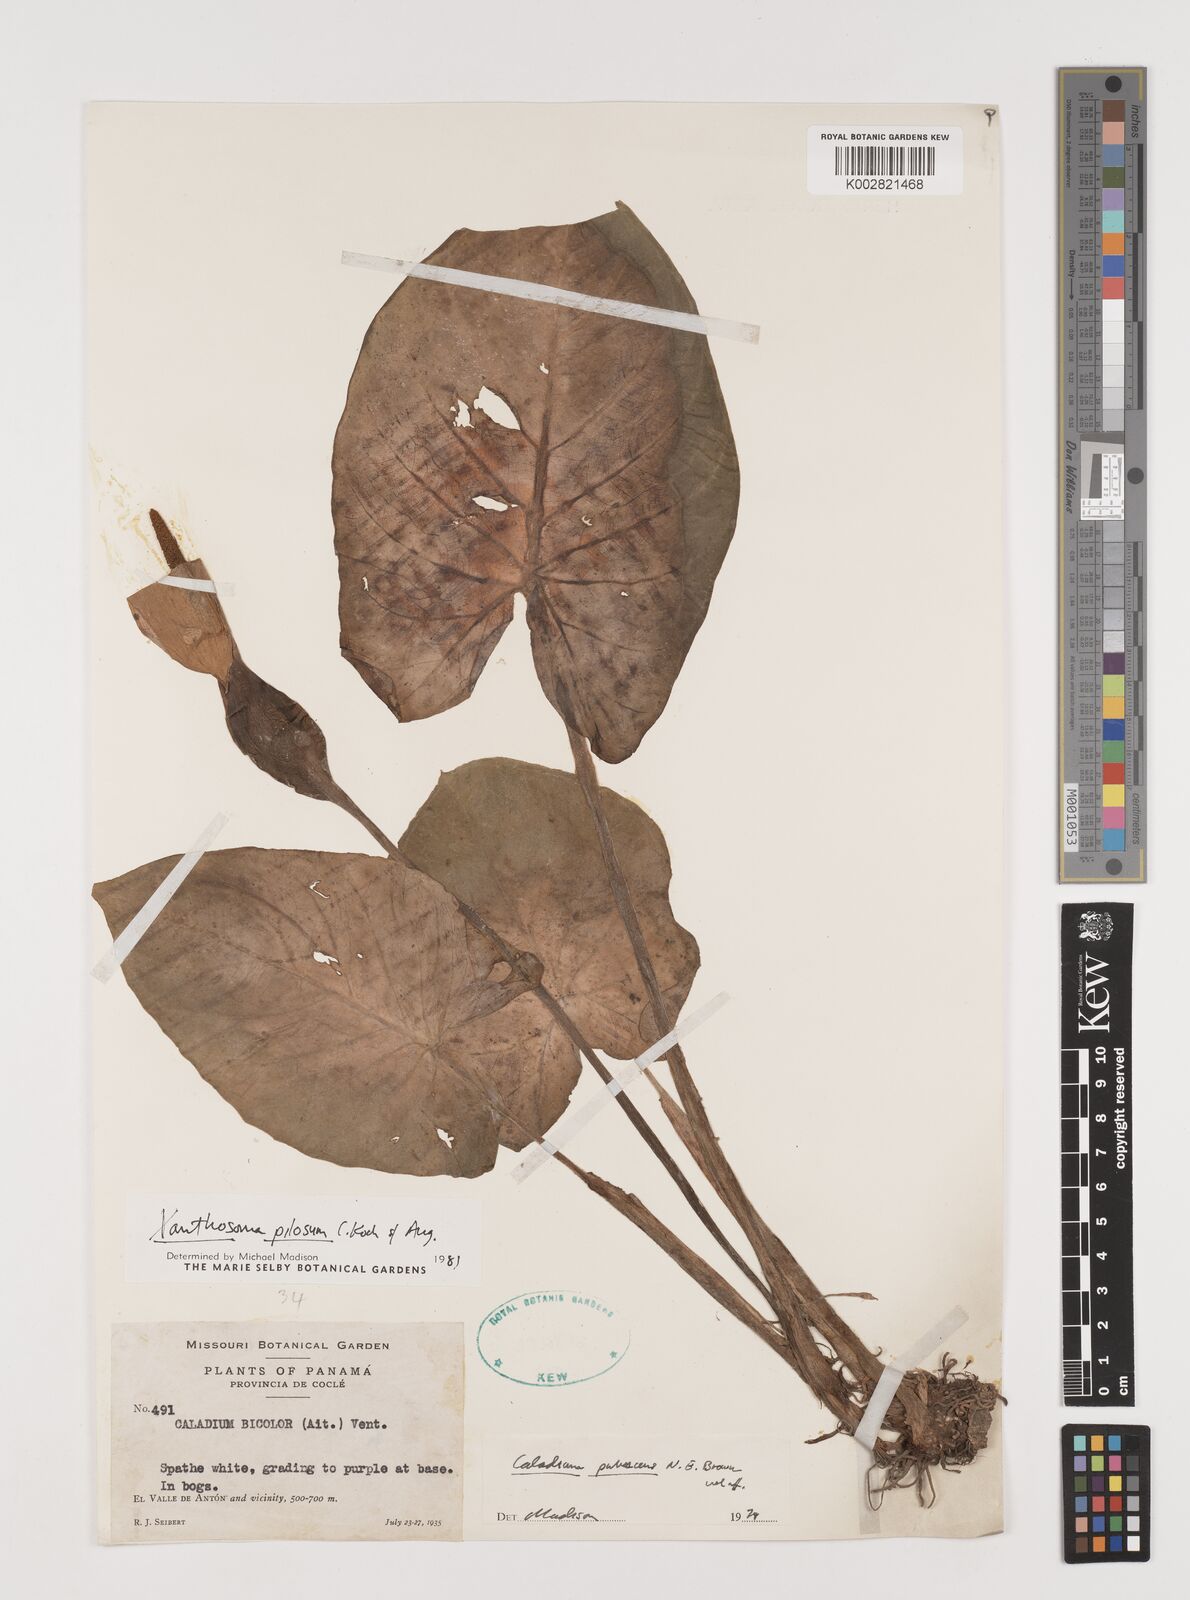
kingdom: Plantae
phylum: Tracheophyta
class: Liliopsida
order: Alismatales
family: Araceae
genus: Xanthosoma
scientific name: Xanthosoma mexicanum
